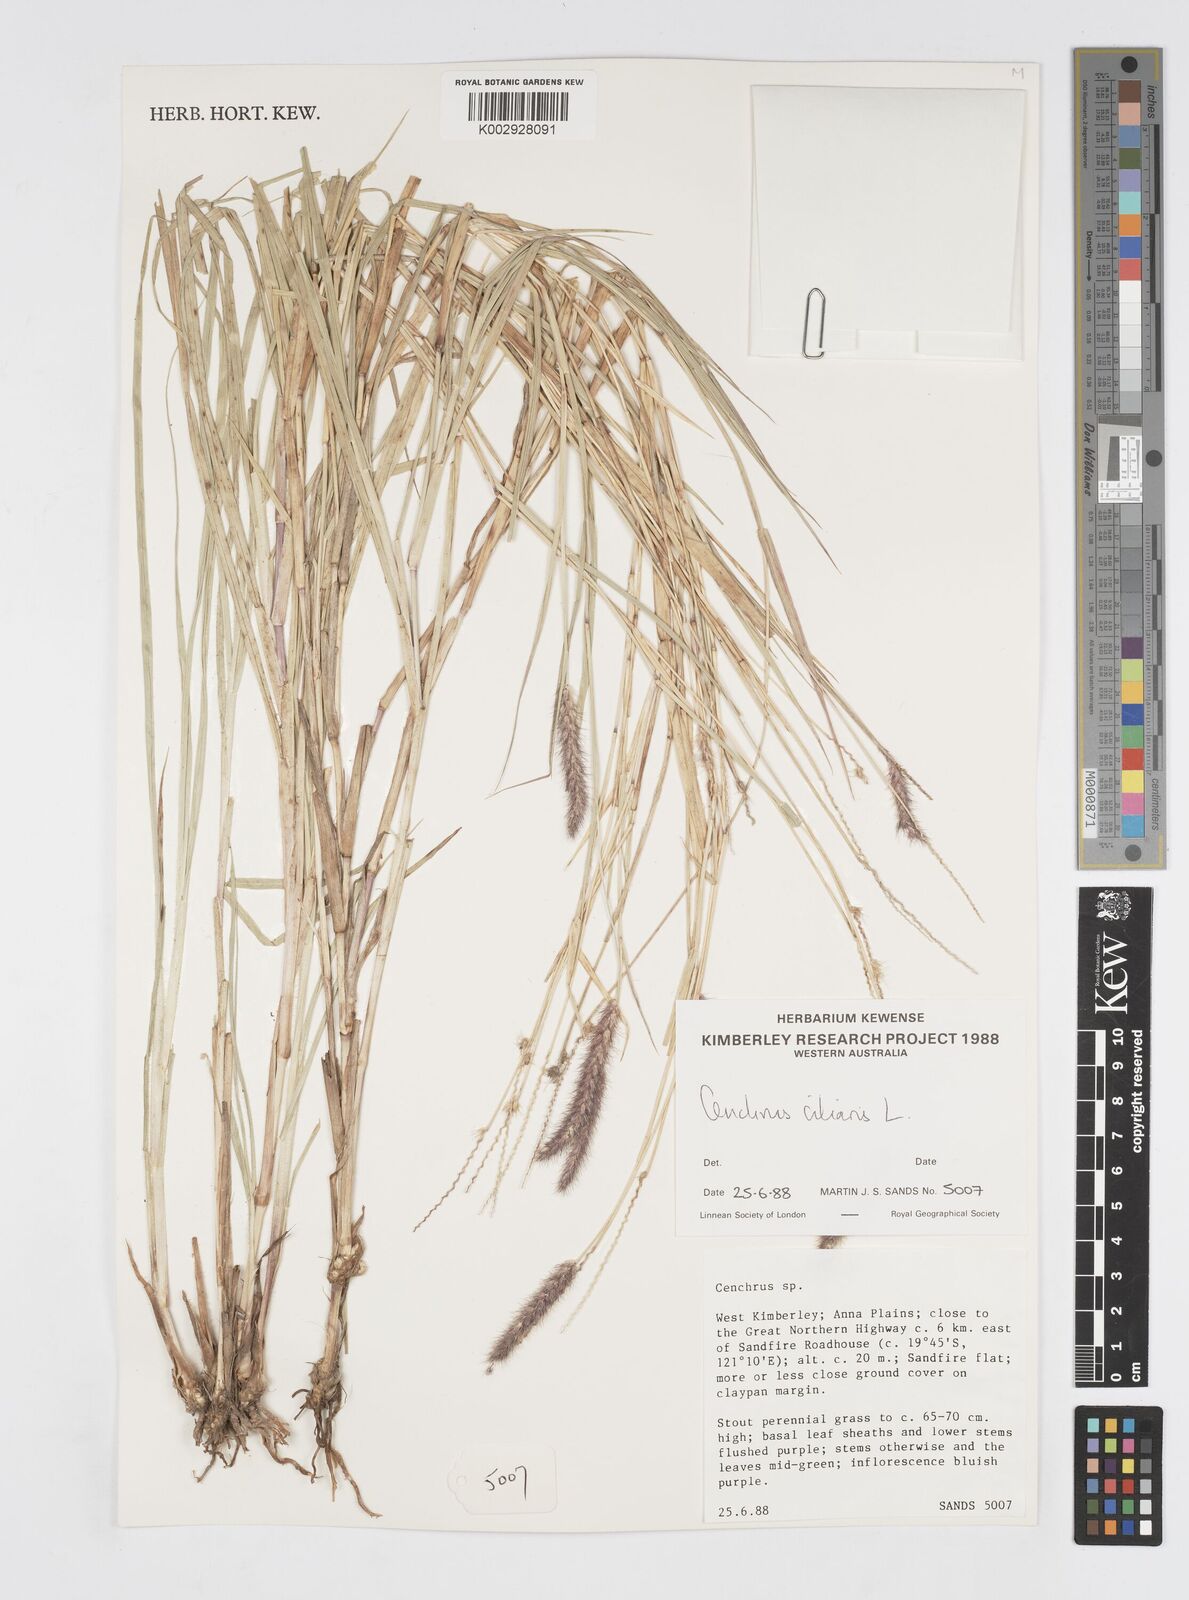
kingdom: Plantae
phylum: Tracheophyta
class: Liliopsida
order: Poales
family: Poaceae
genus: Cenchrus
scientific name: Cenchrus ciliaris
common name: Buffelgrass
